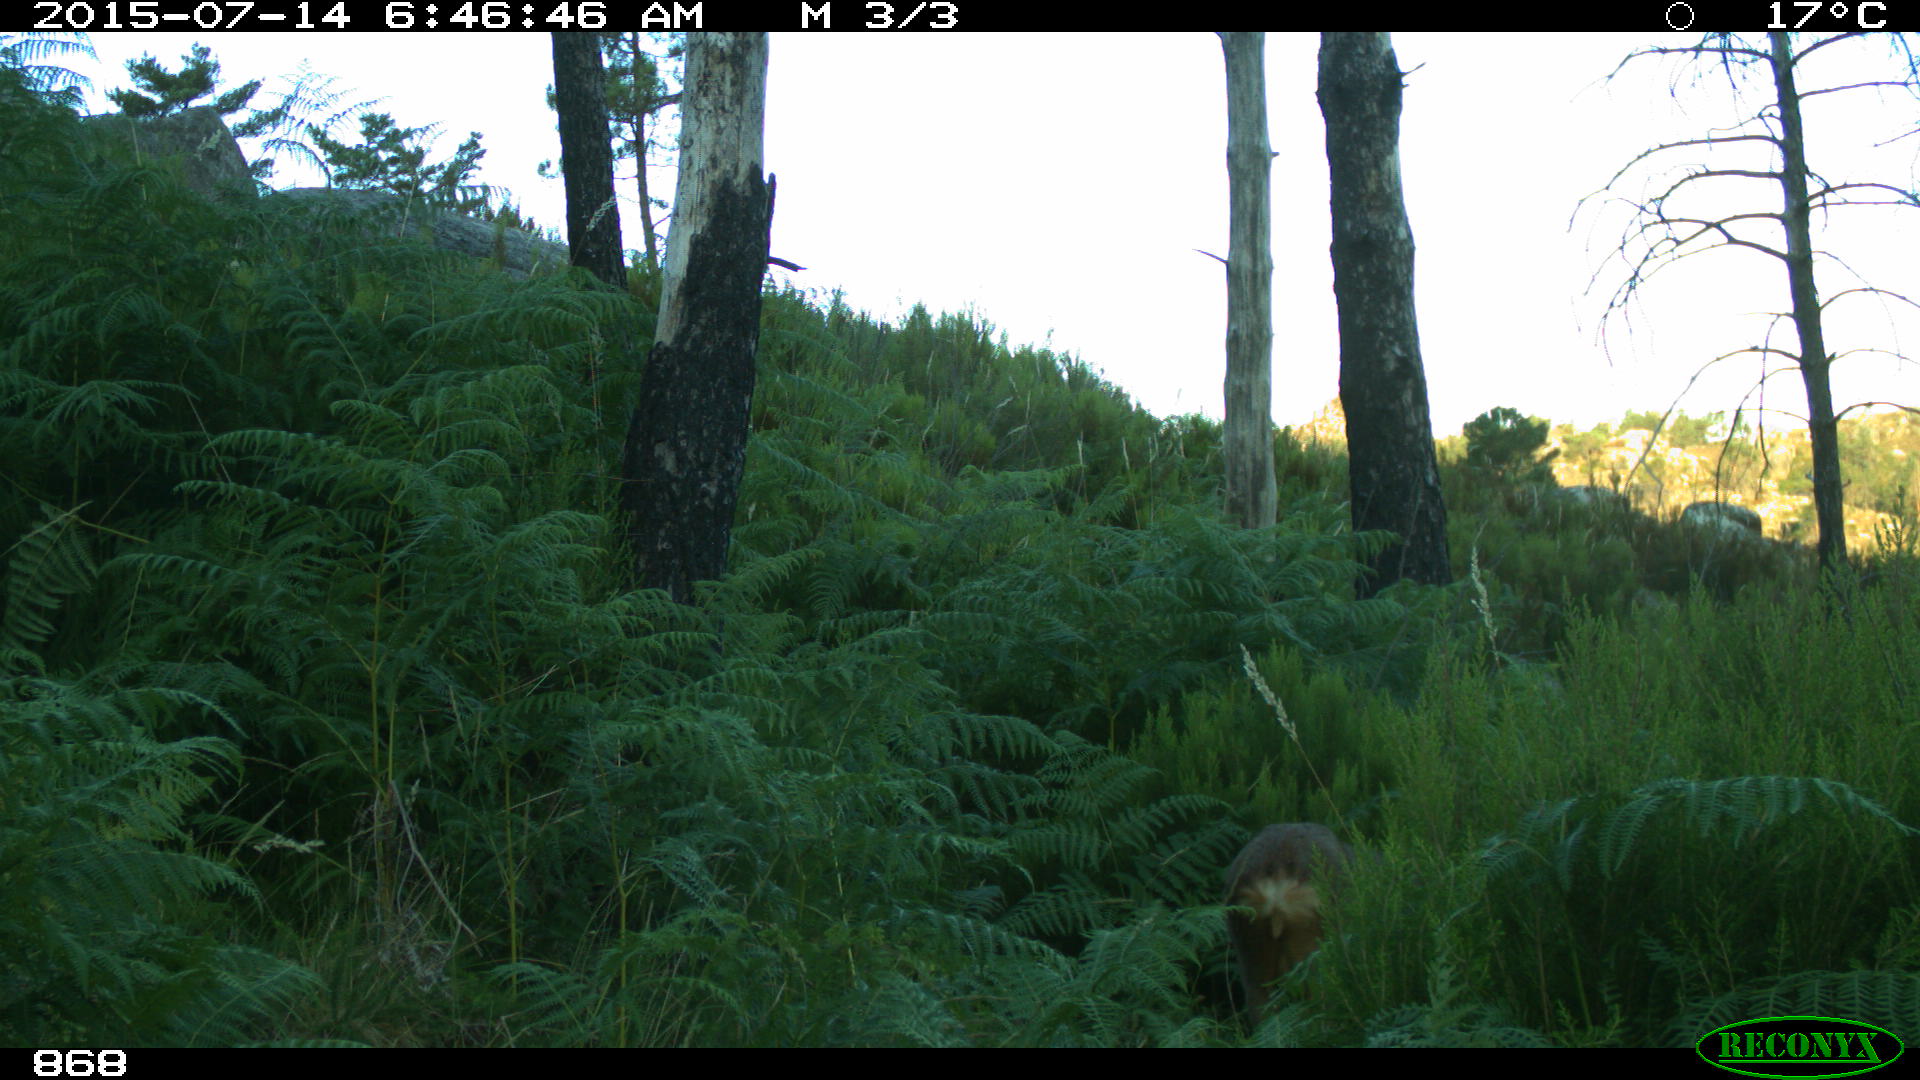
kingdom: Animalia
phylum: Chordata
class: Mammalia
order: Artiodactyla
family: Cervidae
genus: Capreolus
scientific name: Capreolus capreolus
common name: Western roe deer
